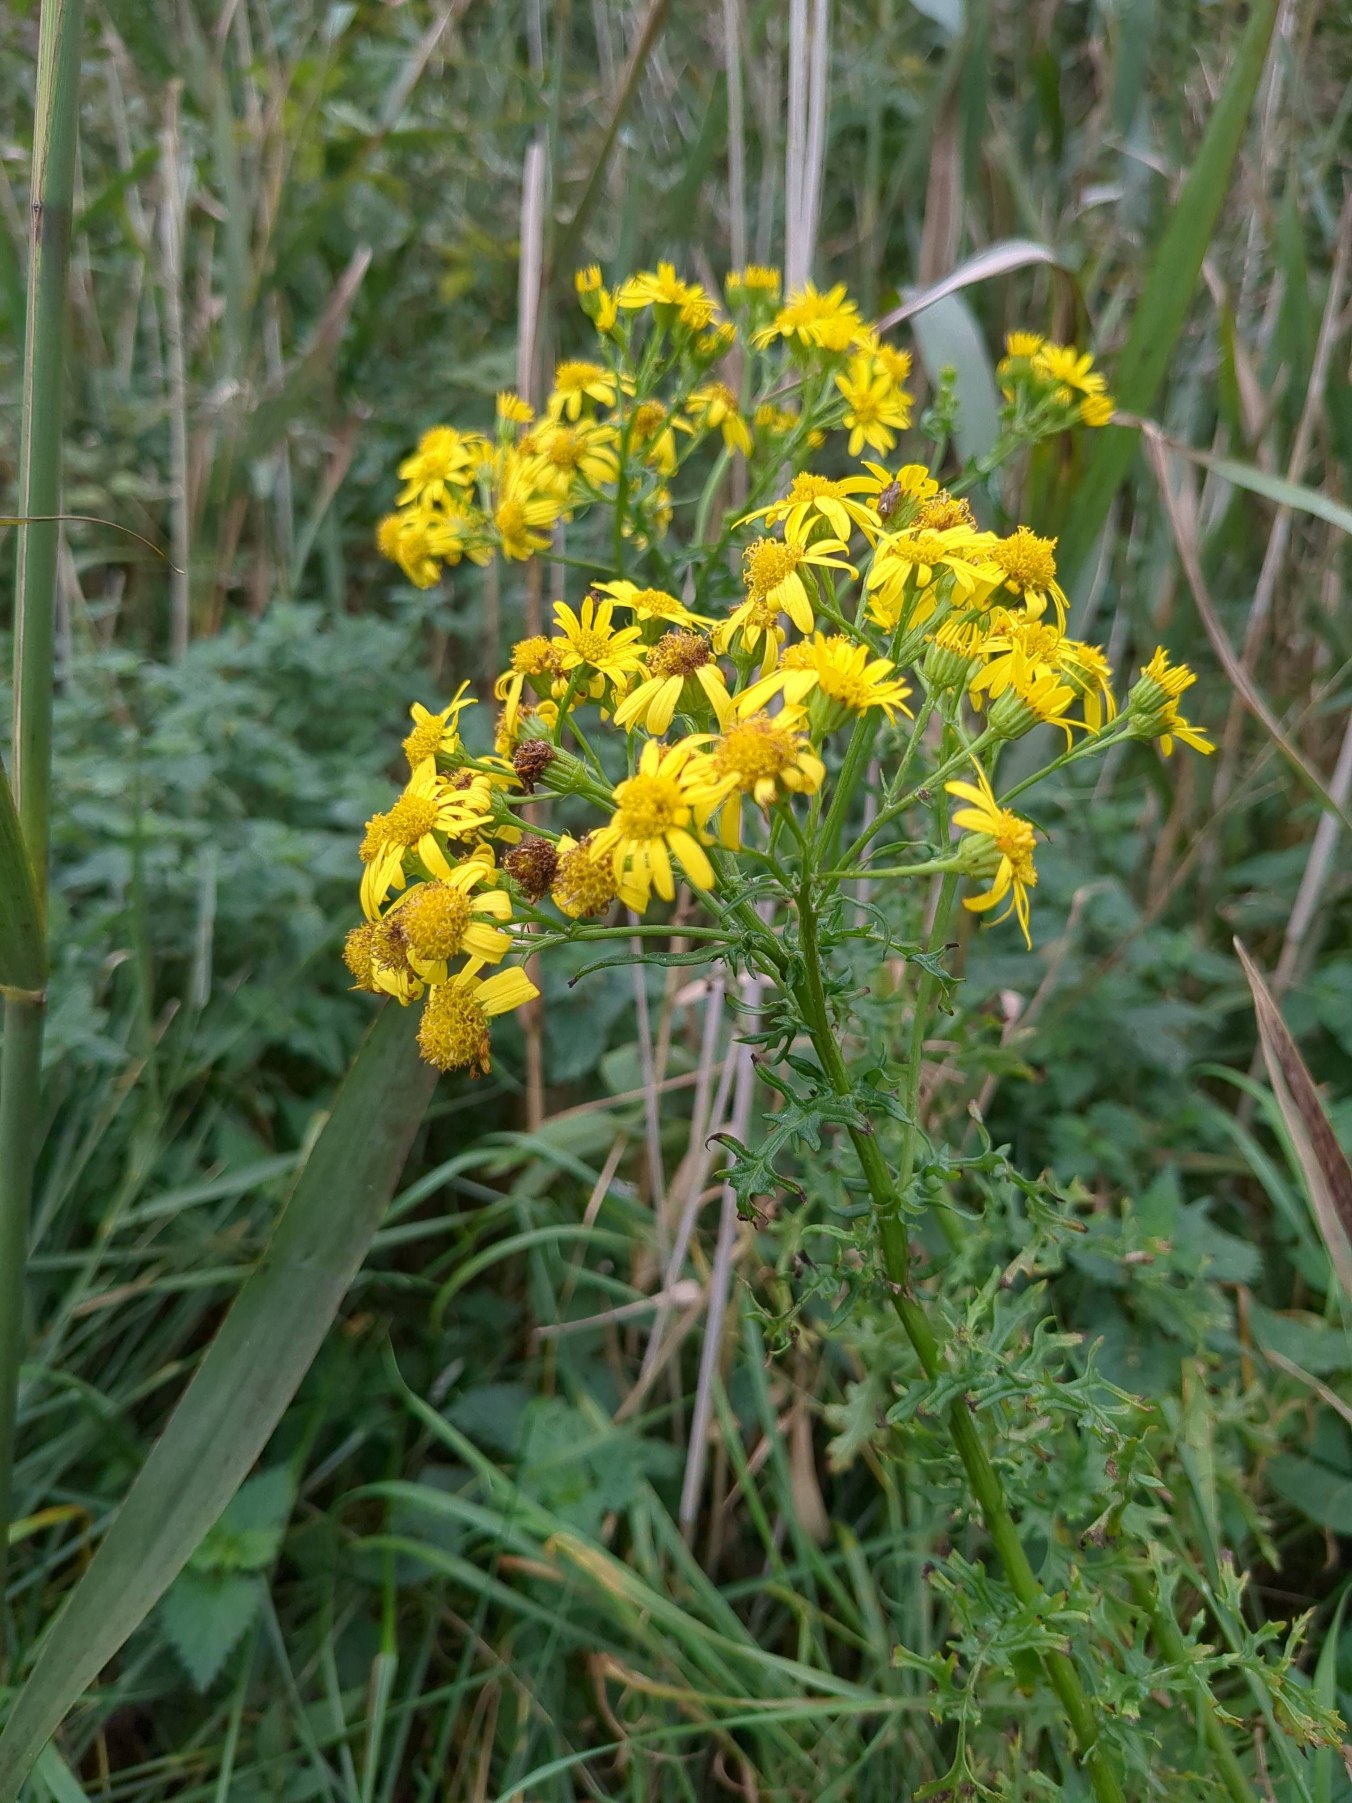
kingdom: Plantae
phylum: Tracheophyta
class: Magnoliopsida
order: Asterales
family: Asteraceae
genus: Jacobaea
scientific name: Jacobaea vulgaris
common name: Eng-brandbæger
